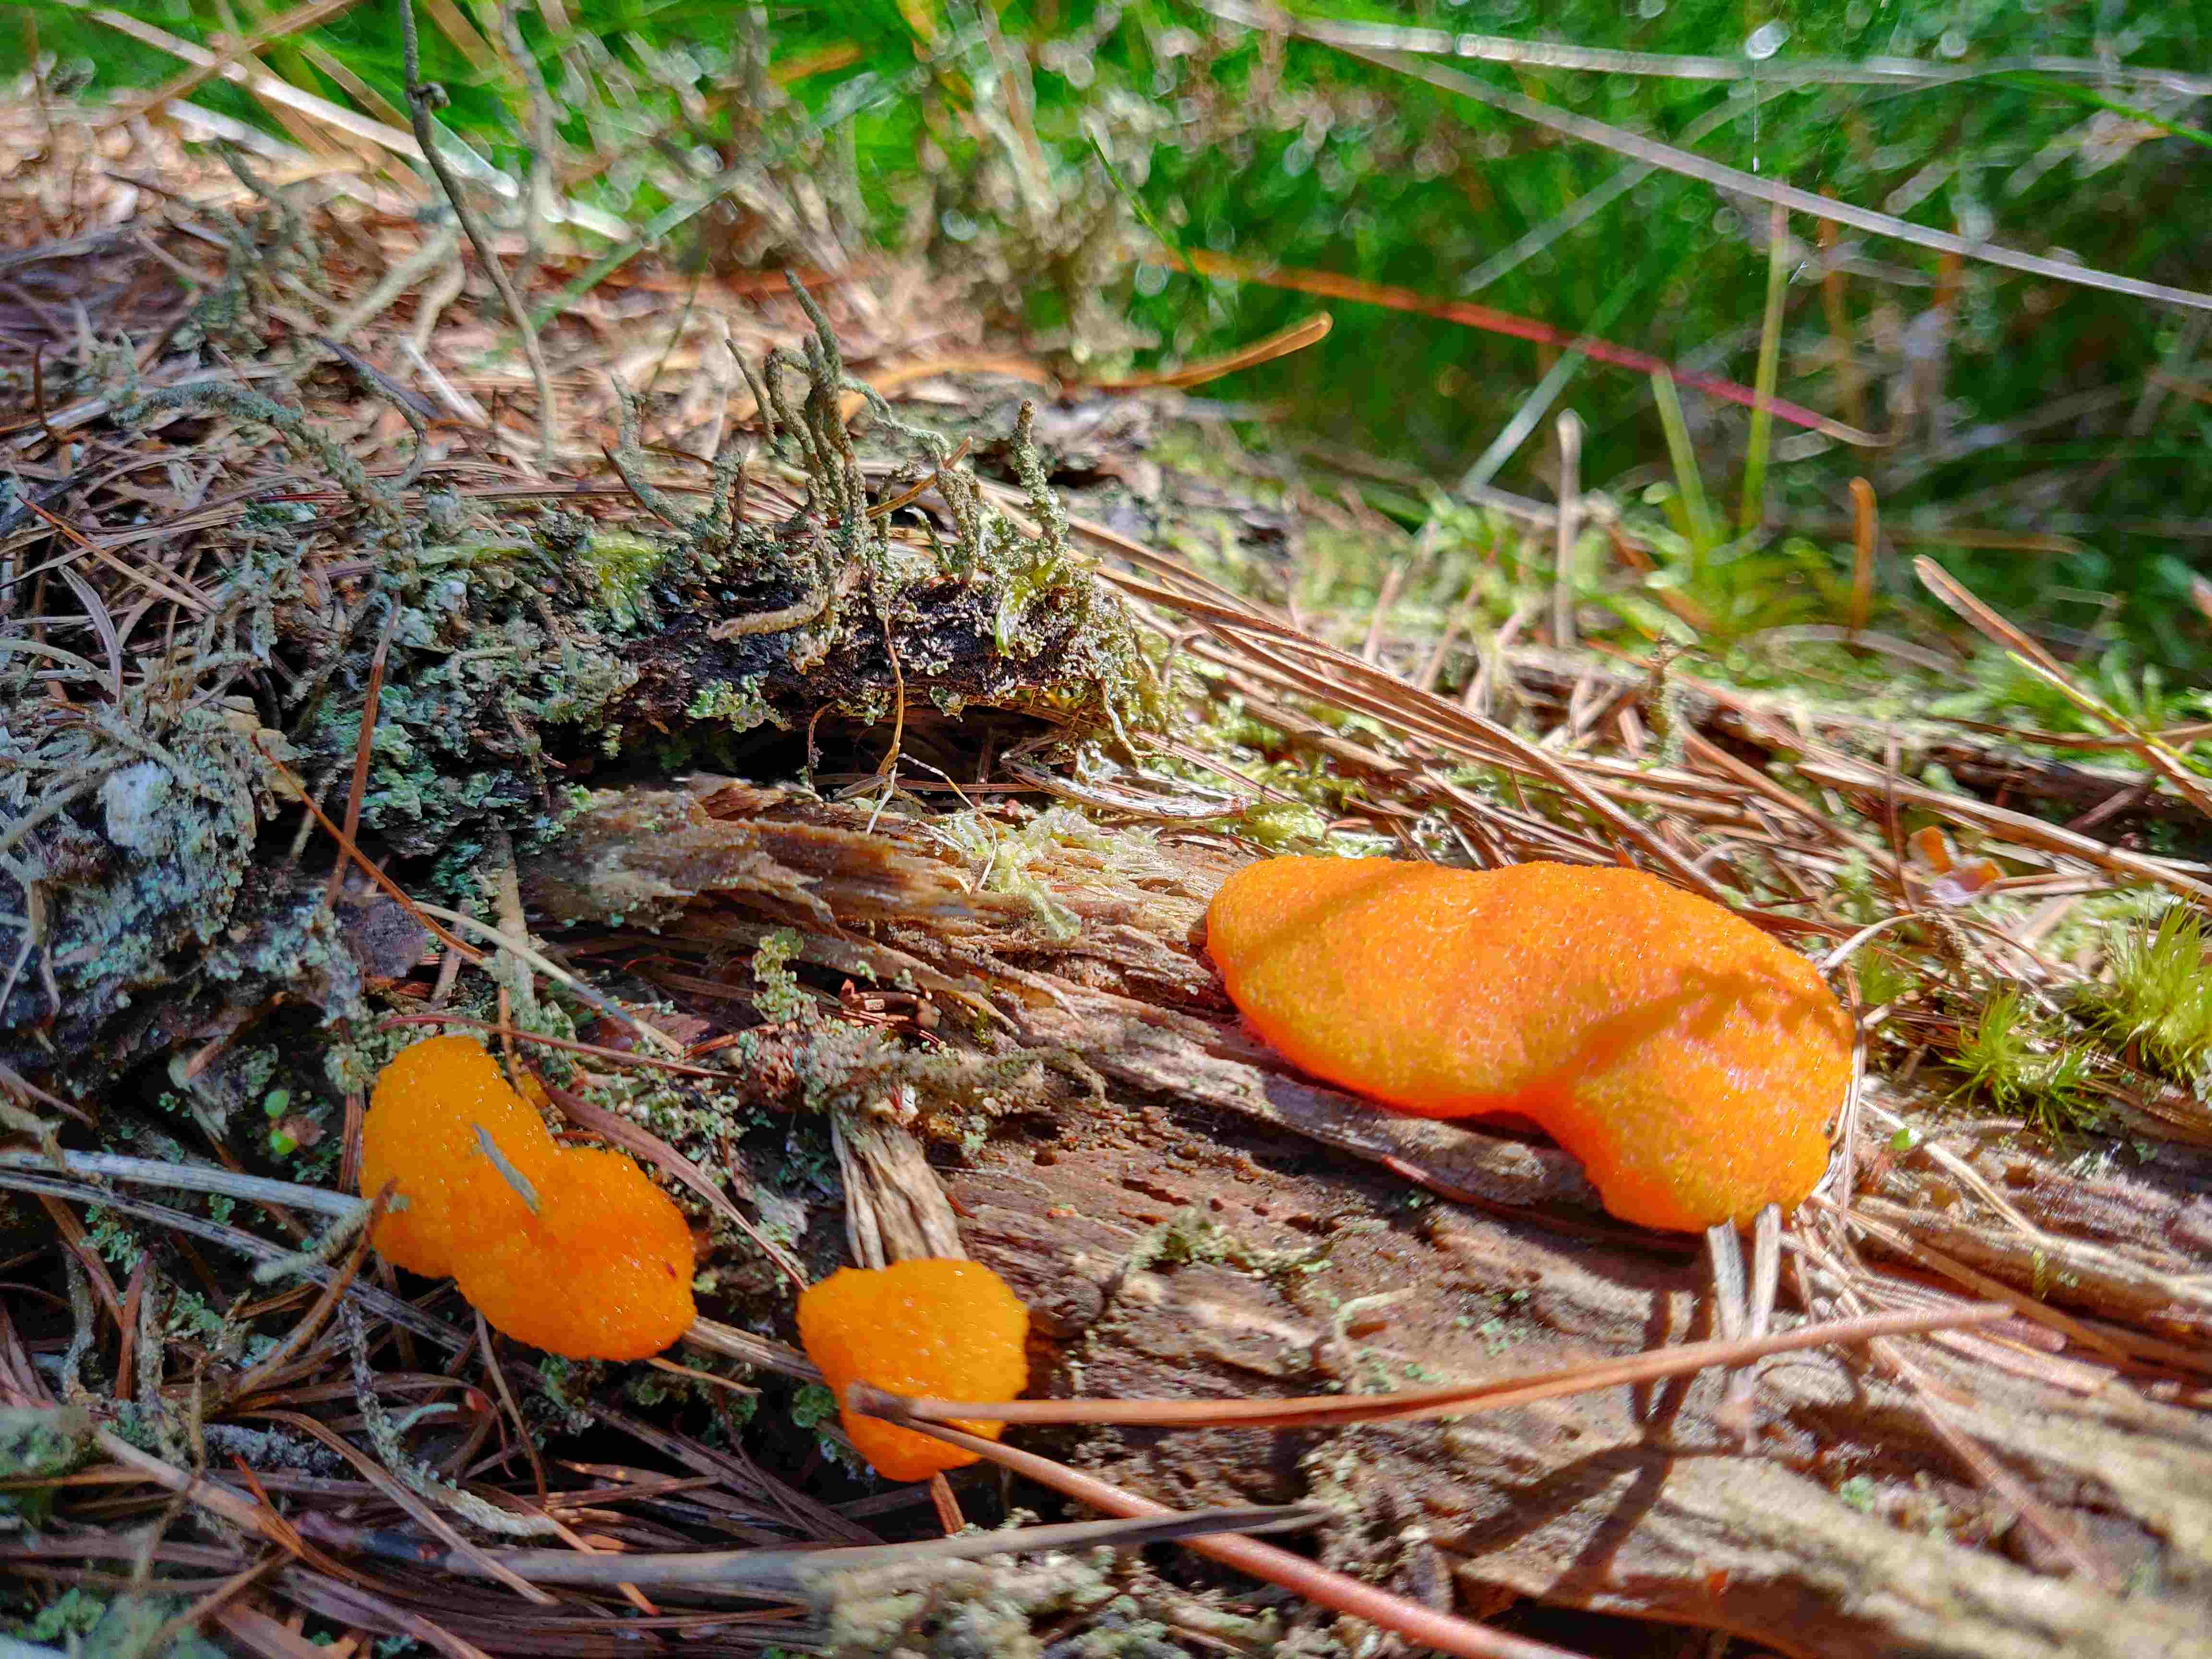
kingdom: Protozoa
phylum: Mycetozoa
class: Myxomycetes
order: Cribrariales
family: Tubiferaceae
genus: Tubifera
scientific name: Tubifera ferruginosa
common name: kanel-støvrør
